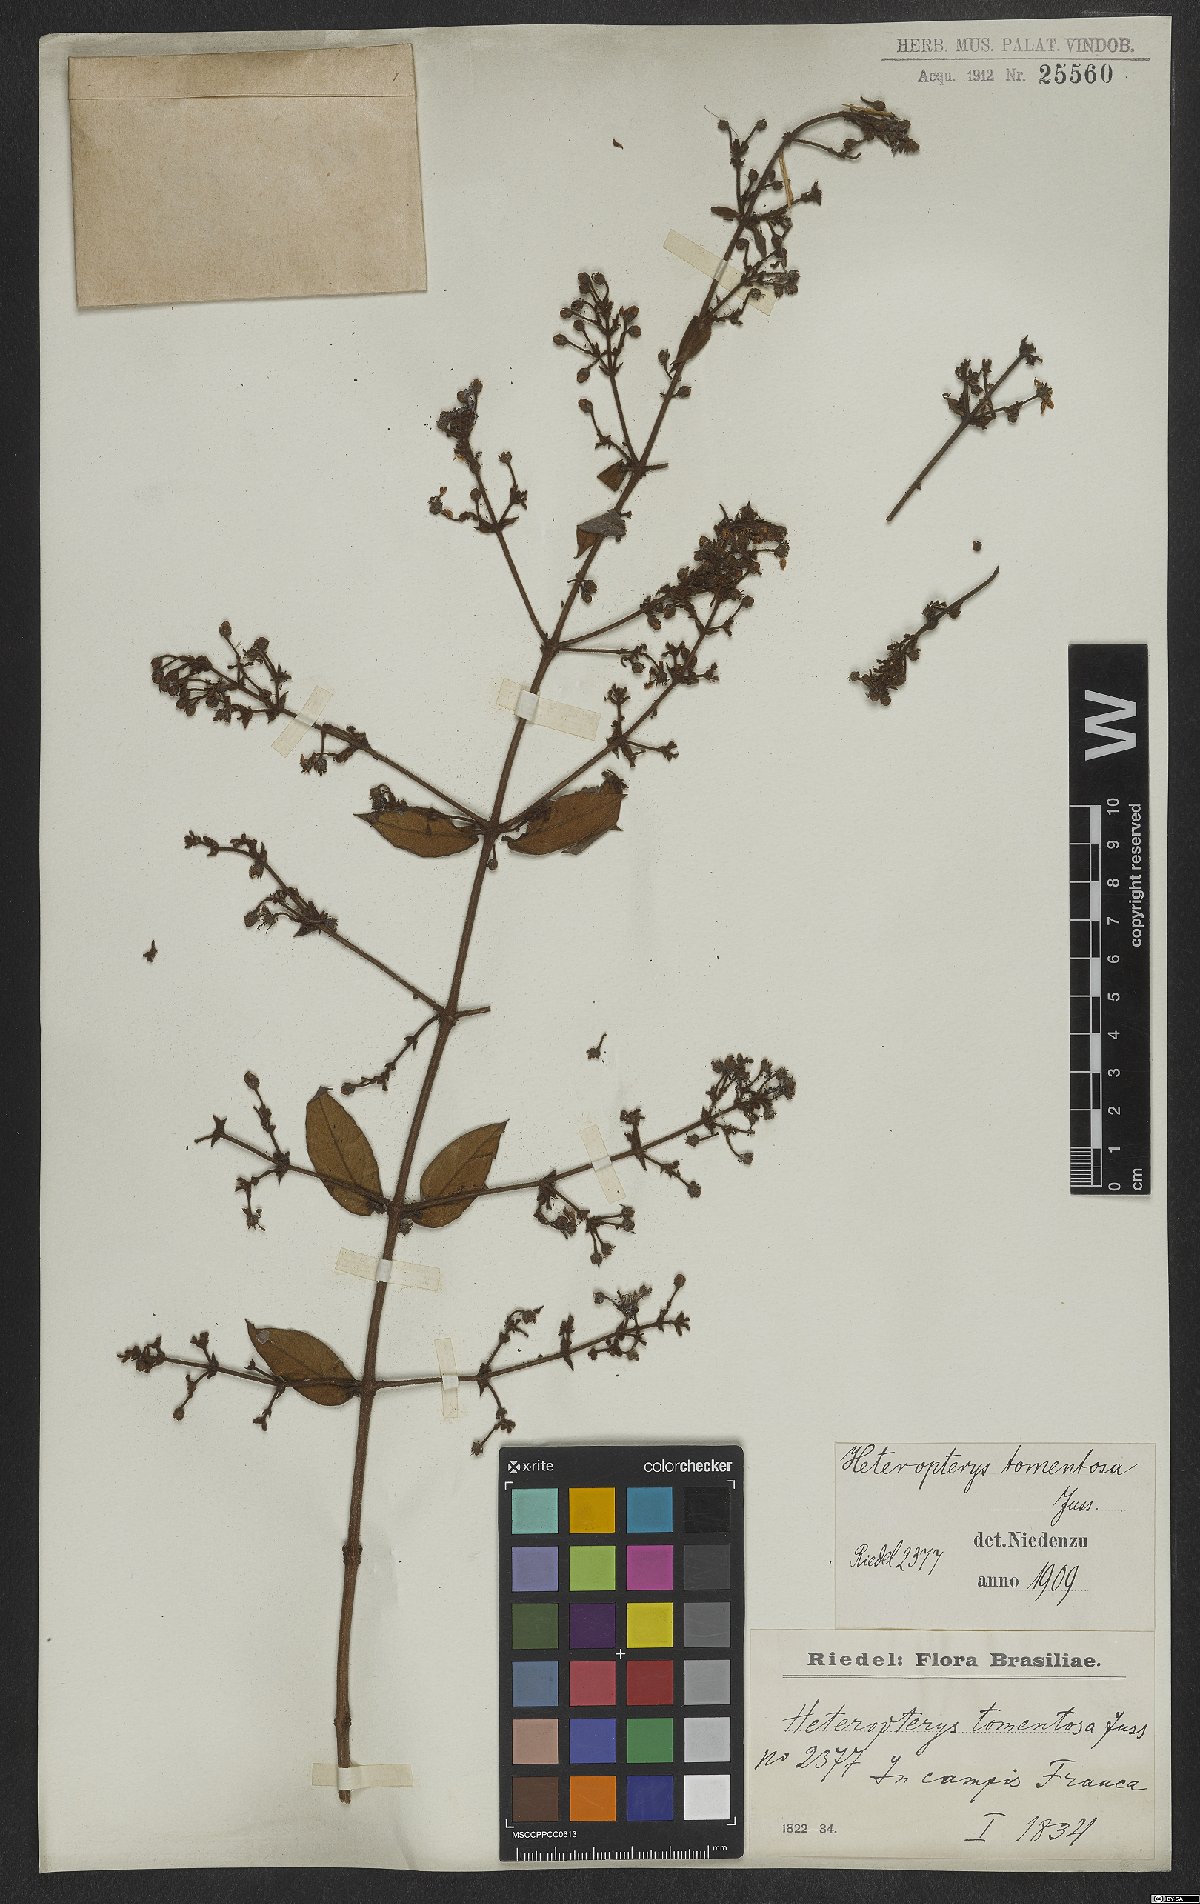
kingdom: Plantae
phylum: Tracheophyta
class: Magnoliopsida
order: Malpighiales
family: Malpighiaceae
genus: Heteropterys
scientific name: Heteropterys tomentosa
